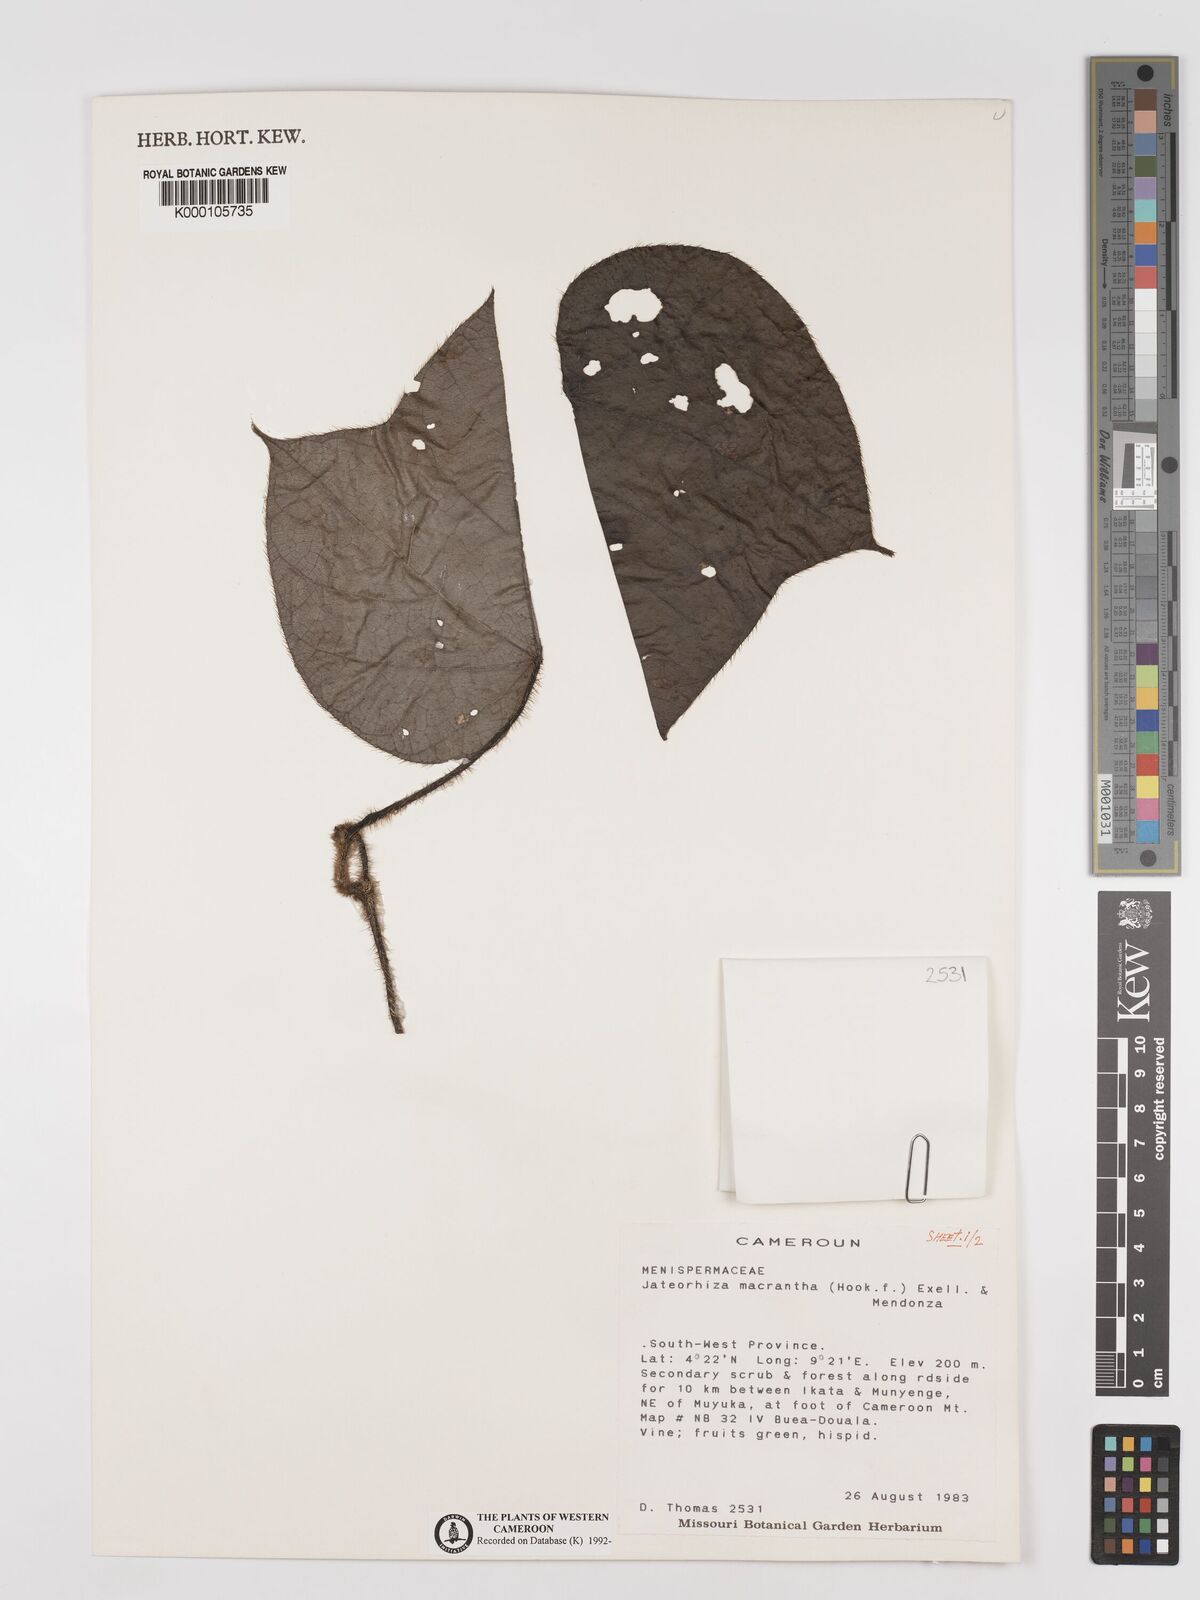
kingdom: Plantae
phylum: Tracheophyta
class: Magnoliopsida
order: Ranunculales
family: Menispermaceae
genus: Jateorhiza
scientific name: Jateorhiza
